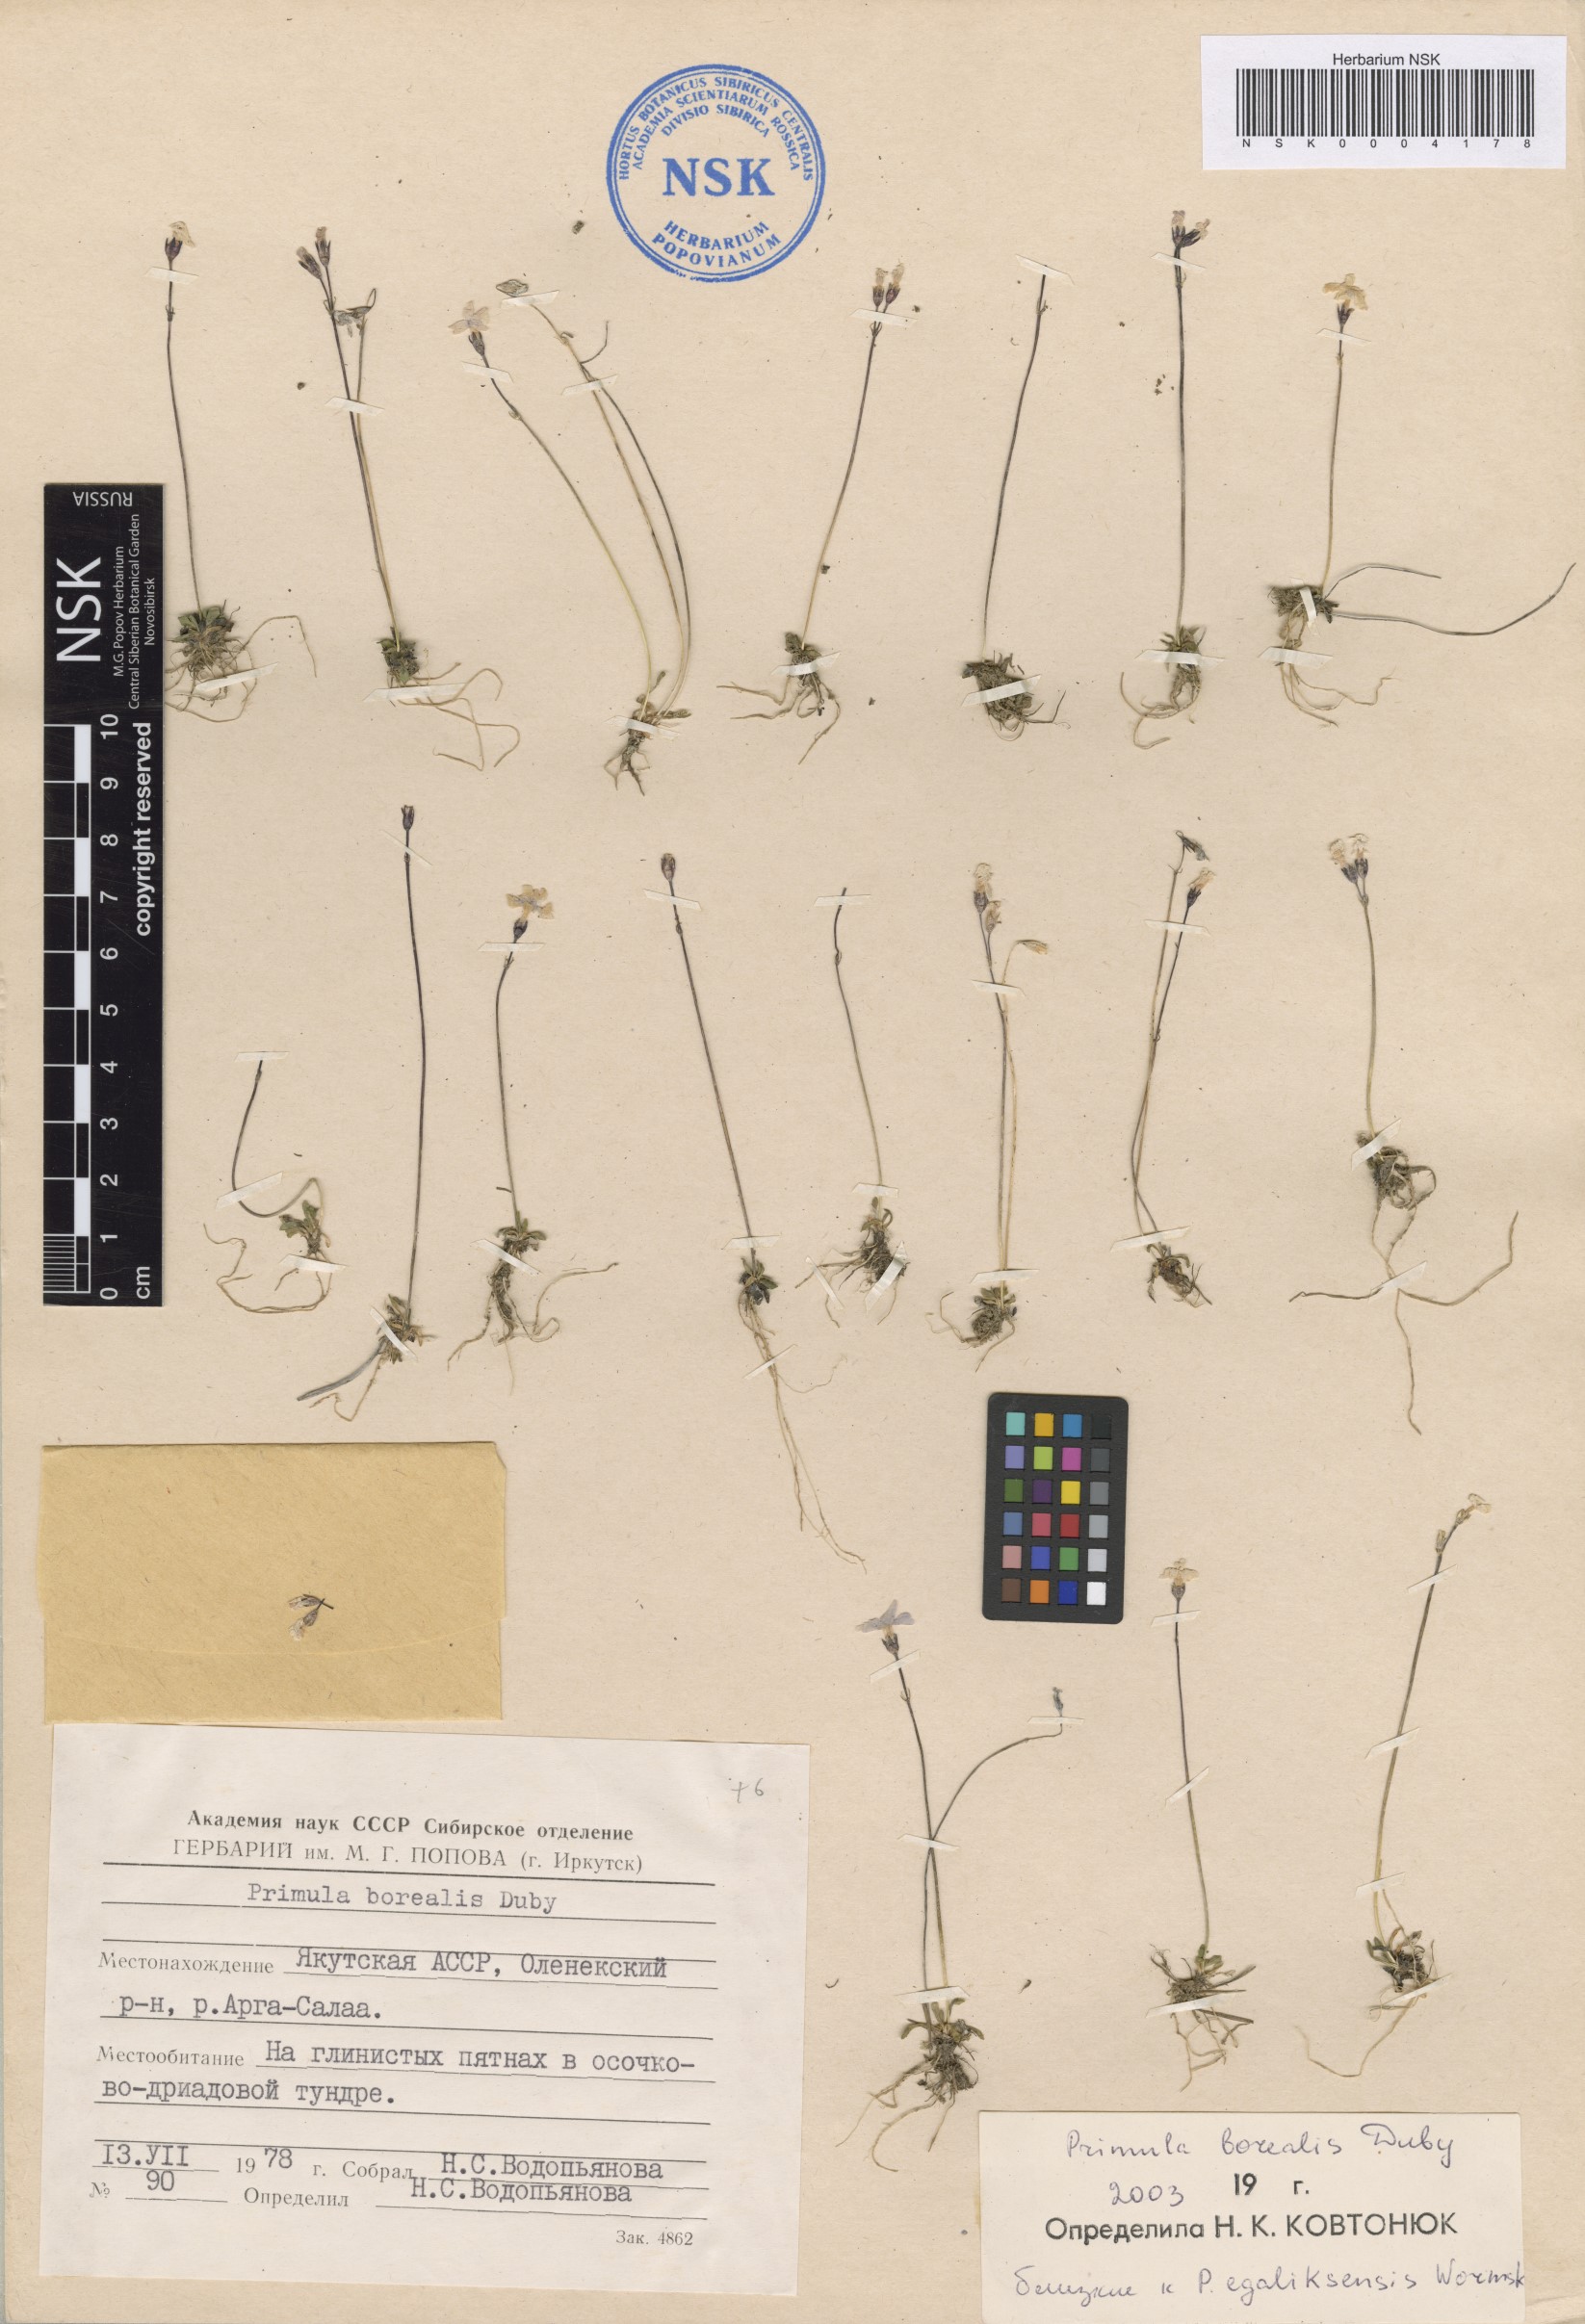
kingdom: Plantae
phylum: Tracheophyta
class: Magnoliopsida
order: Ericales
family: Primulaceae
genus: Primula
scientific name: Primula borealis
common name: Northern primrose
